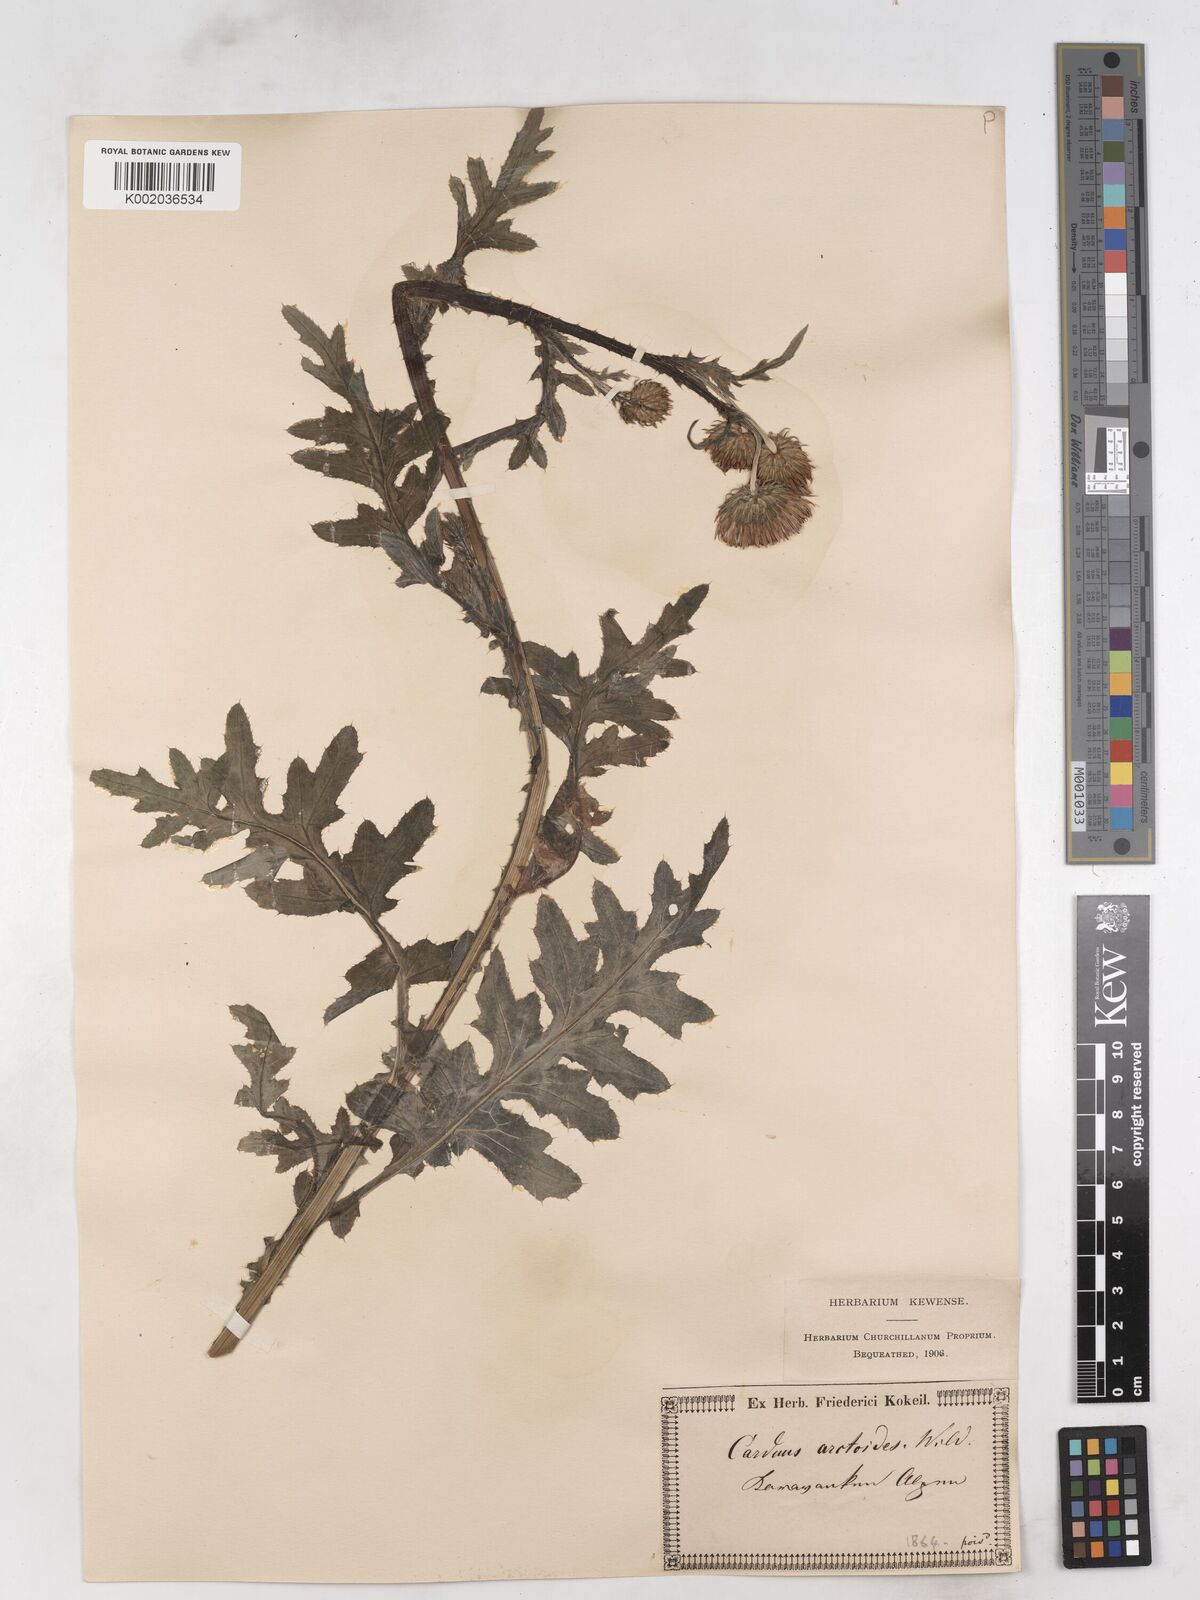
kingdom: Plantae
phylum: Tracheophyta
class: Magnoliopsida
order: Asterales
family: Asteraceae
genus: Carduus
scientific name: Carduus carduelis
